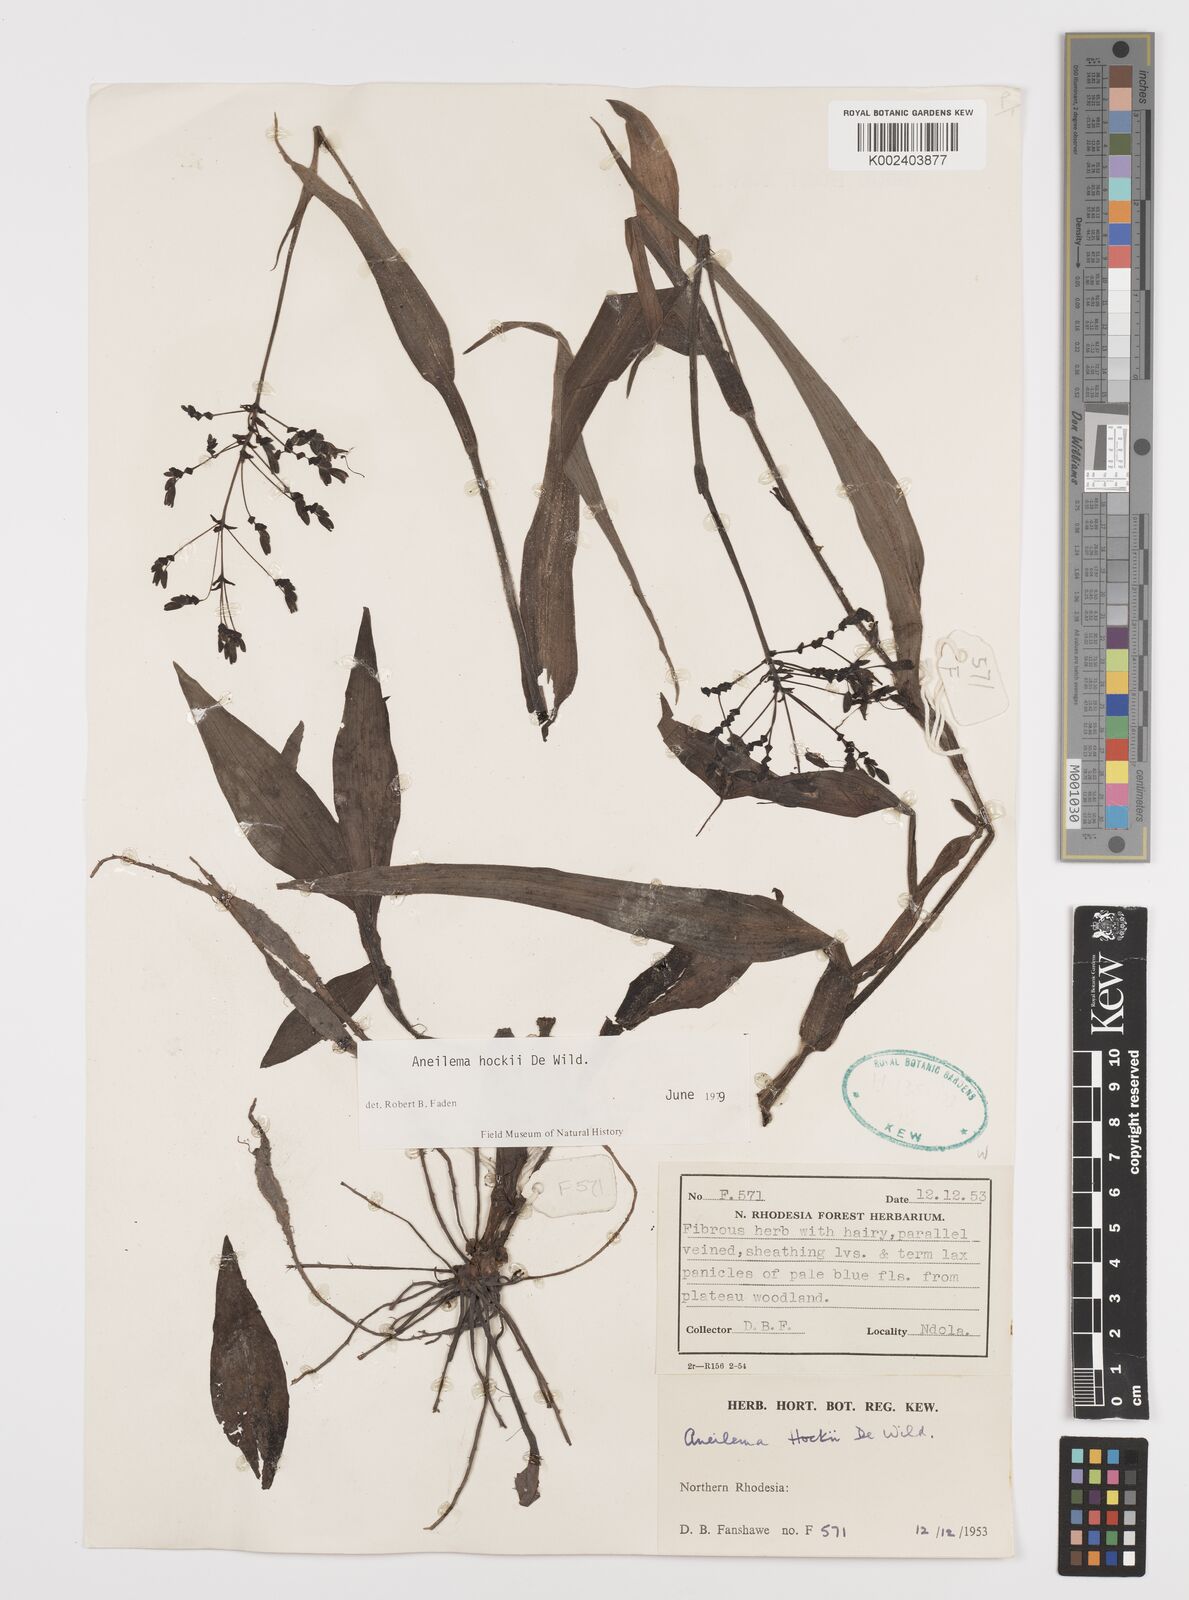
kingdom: Plantae
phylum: Tracheophyta
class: Liliopsida
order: Commelinales
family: Commelinaceae
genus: Aneilema
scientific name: Aneilema hockii
